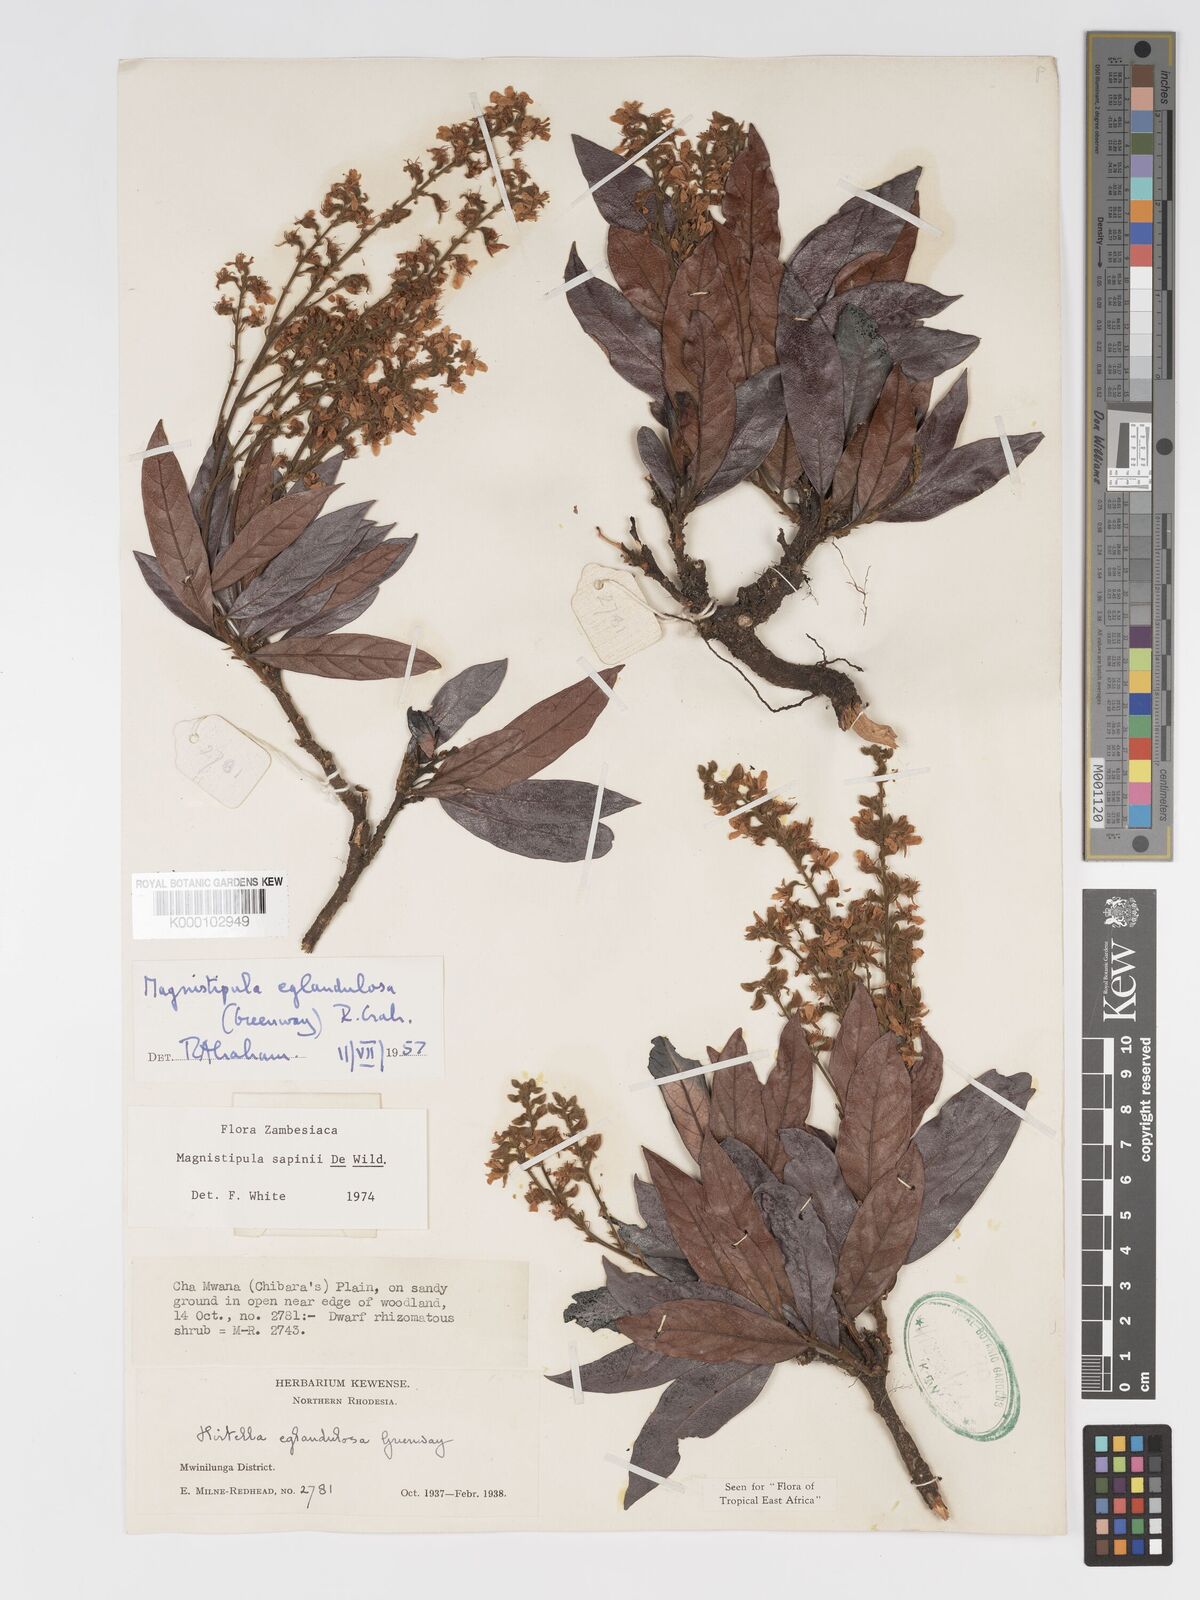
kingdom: Plantae
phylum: Tracheophyta
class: Magnoliopsida
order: Malpighiales
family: Chrysobalanaceae
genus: Magnistipula
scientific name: Magnistipula sapinii
